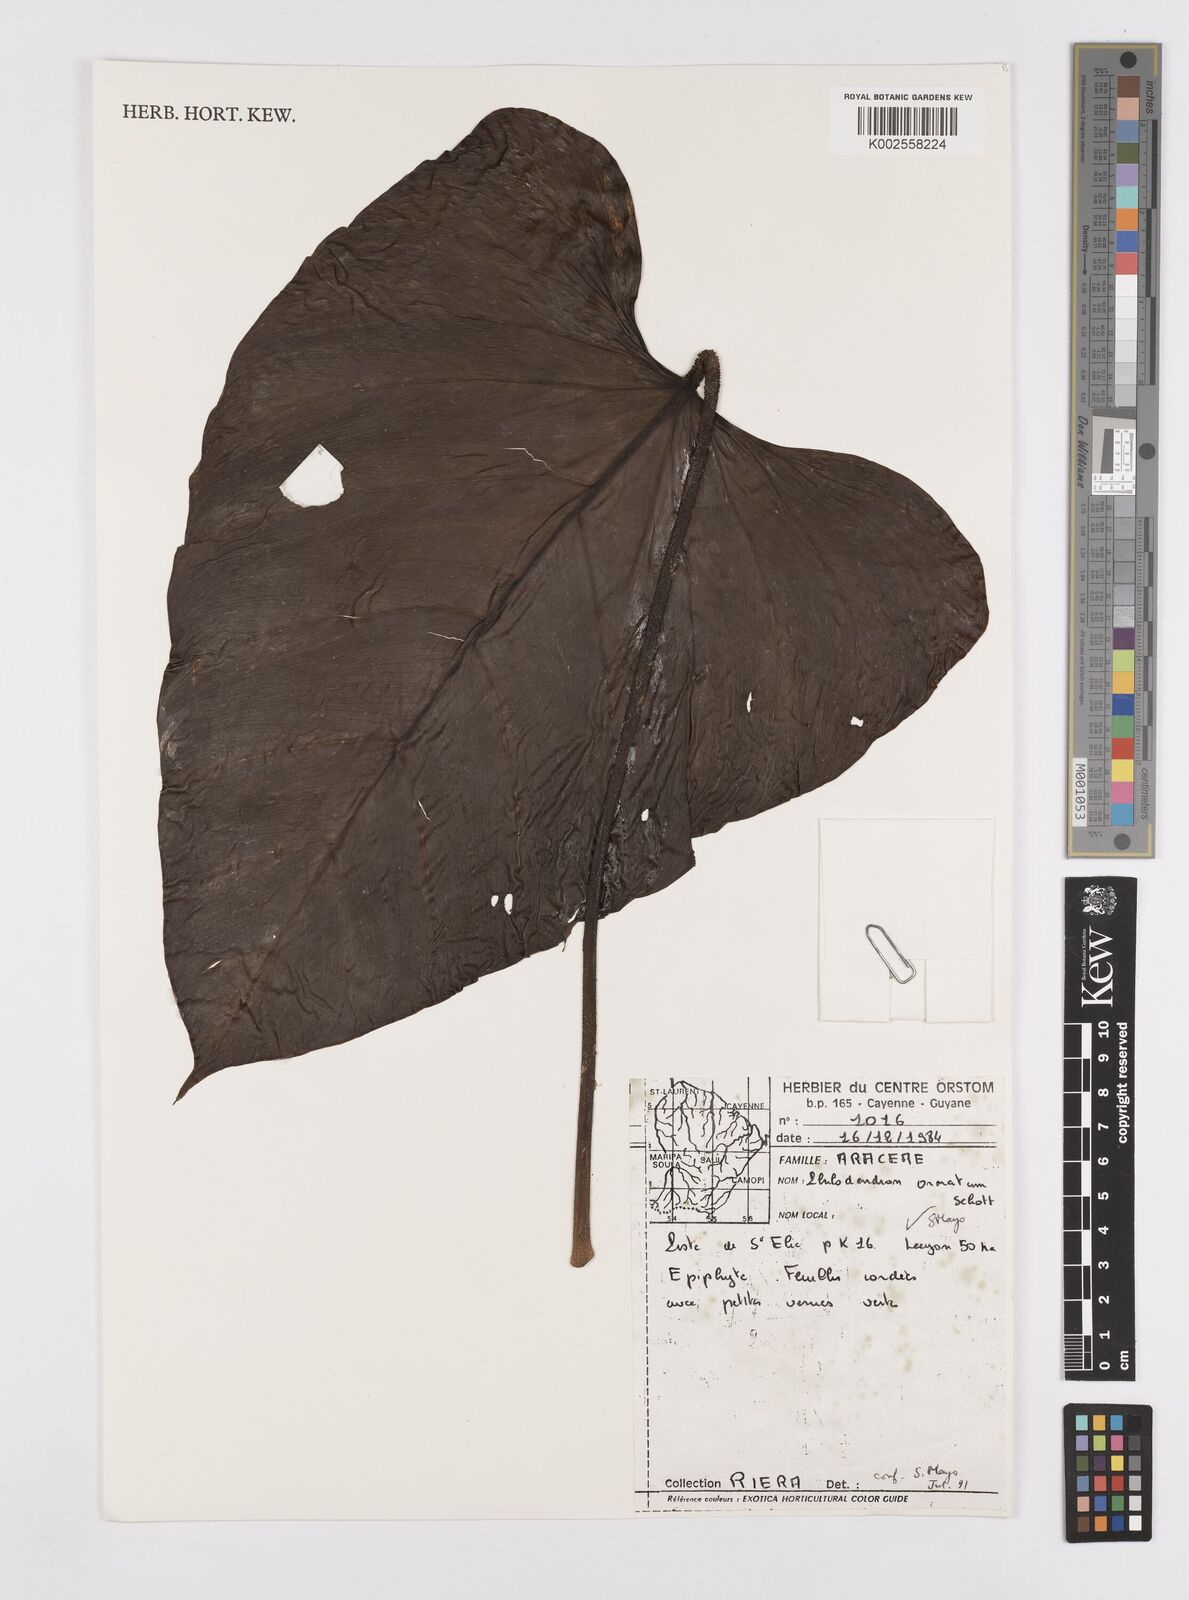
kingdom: Plantae
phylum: Tracheophyta
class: Liliopsida
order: Alismatales
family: Araceae
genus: Philodendron
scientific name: Philodendron ornatum
